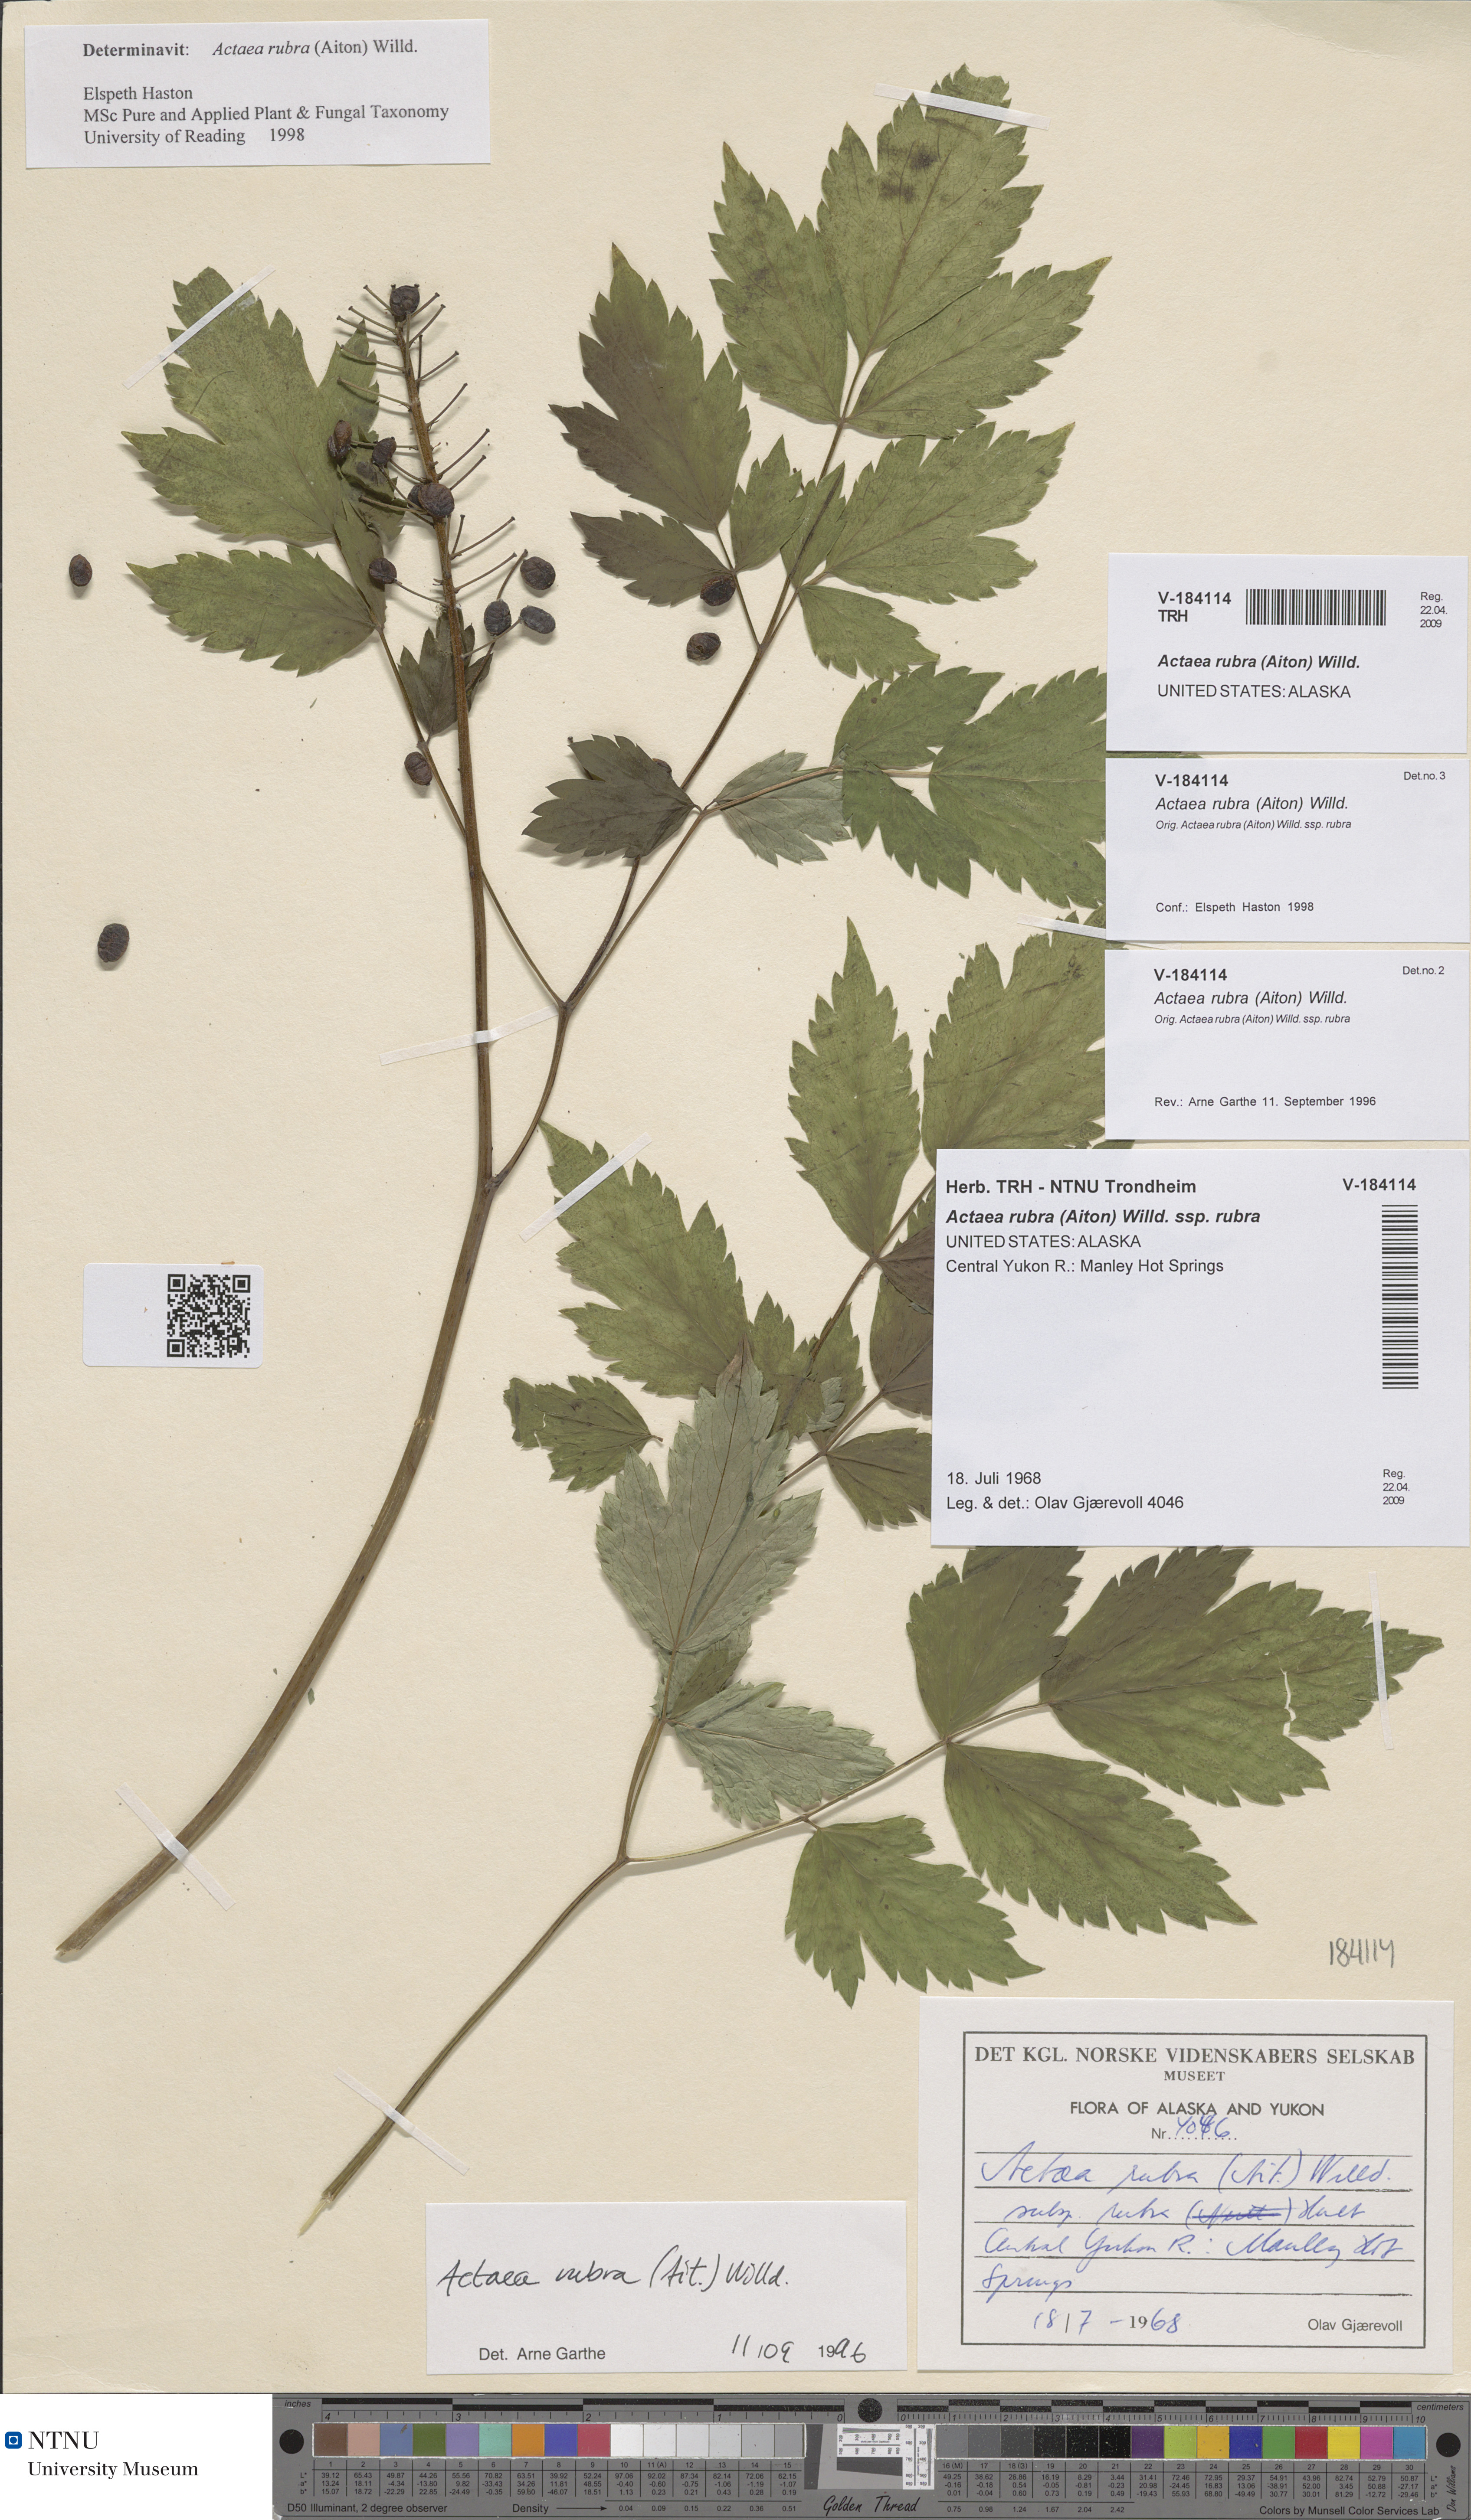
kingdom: Plantae
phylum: Tracheophyta
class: Magnoliopsida
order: Ranunculales
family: Ranunculaceae
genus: Actaea
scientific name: Actaea rubra
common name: Red baneberry
